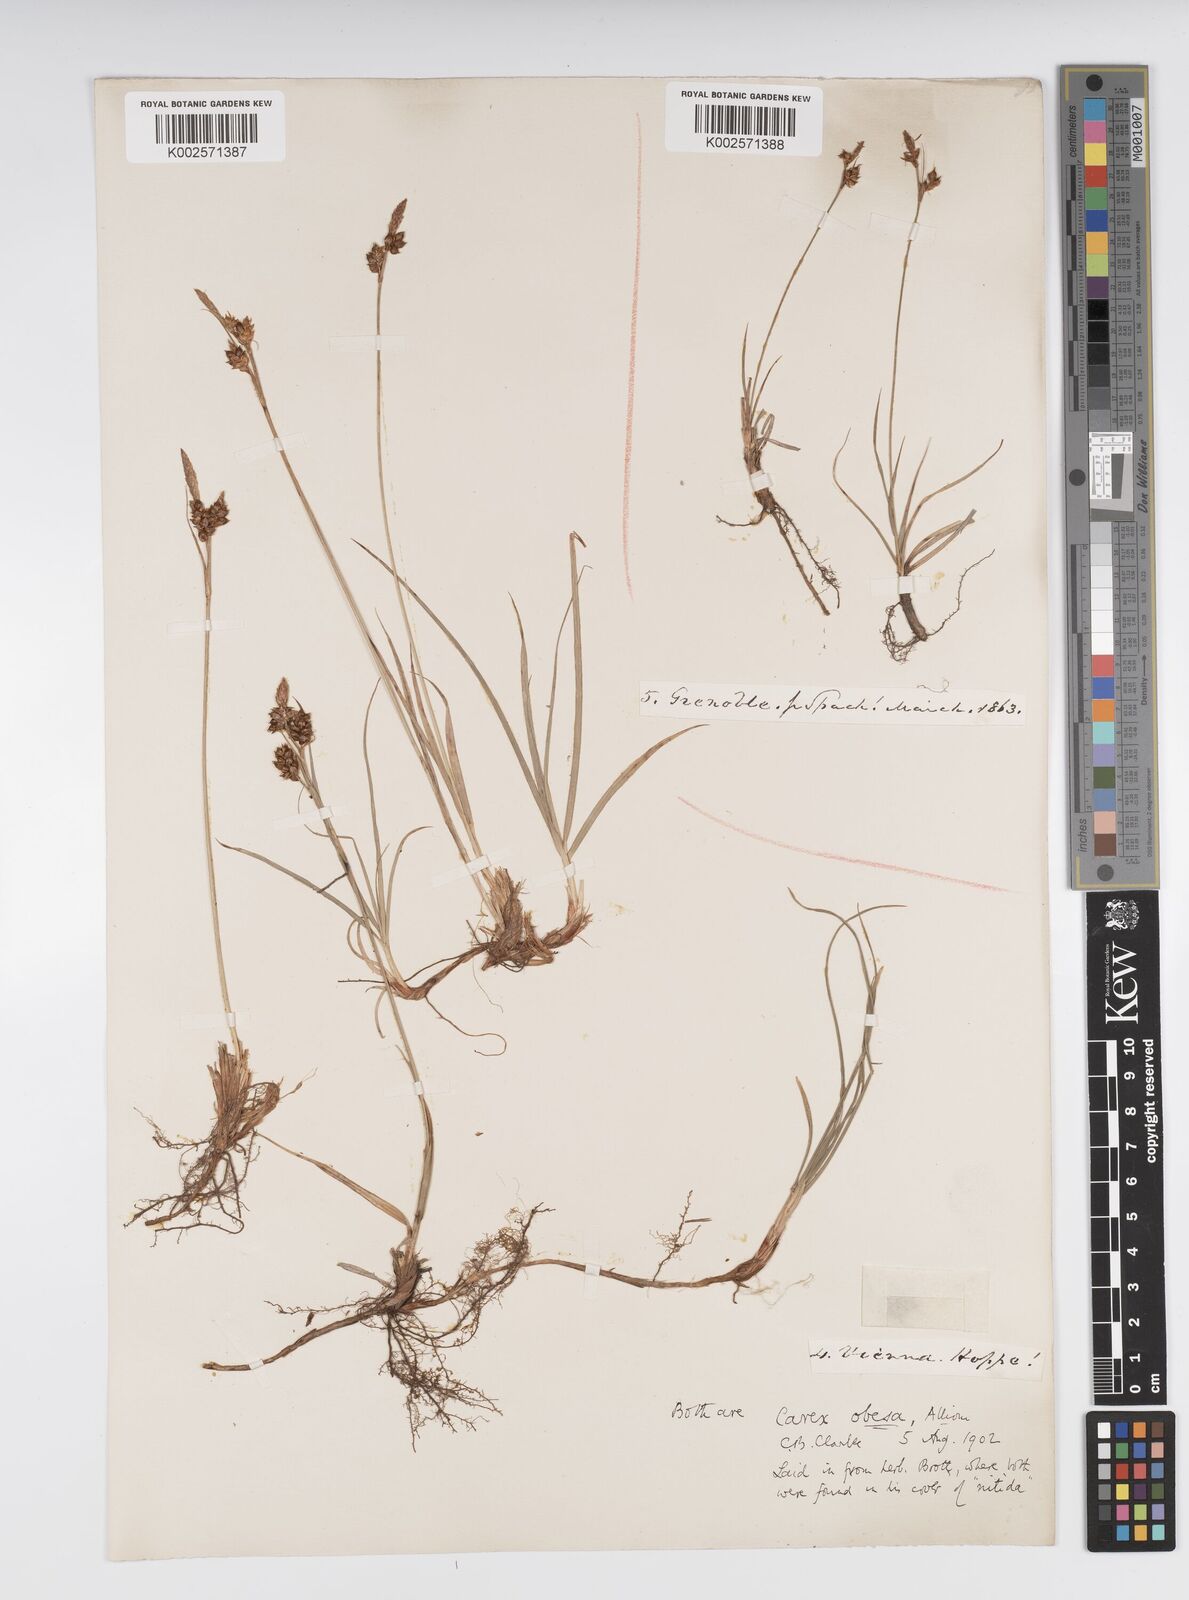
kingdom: Plantae
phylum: Tracheophyta
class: Liliopsida
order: Poales
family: Cyperaceae
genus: Carex
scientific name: Carex liparocarpos
